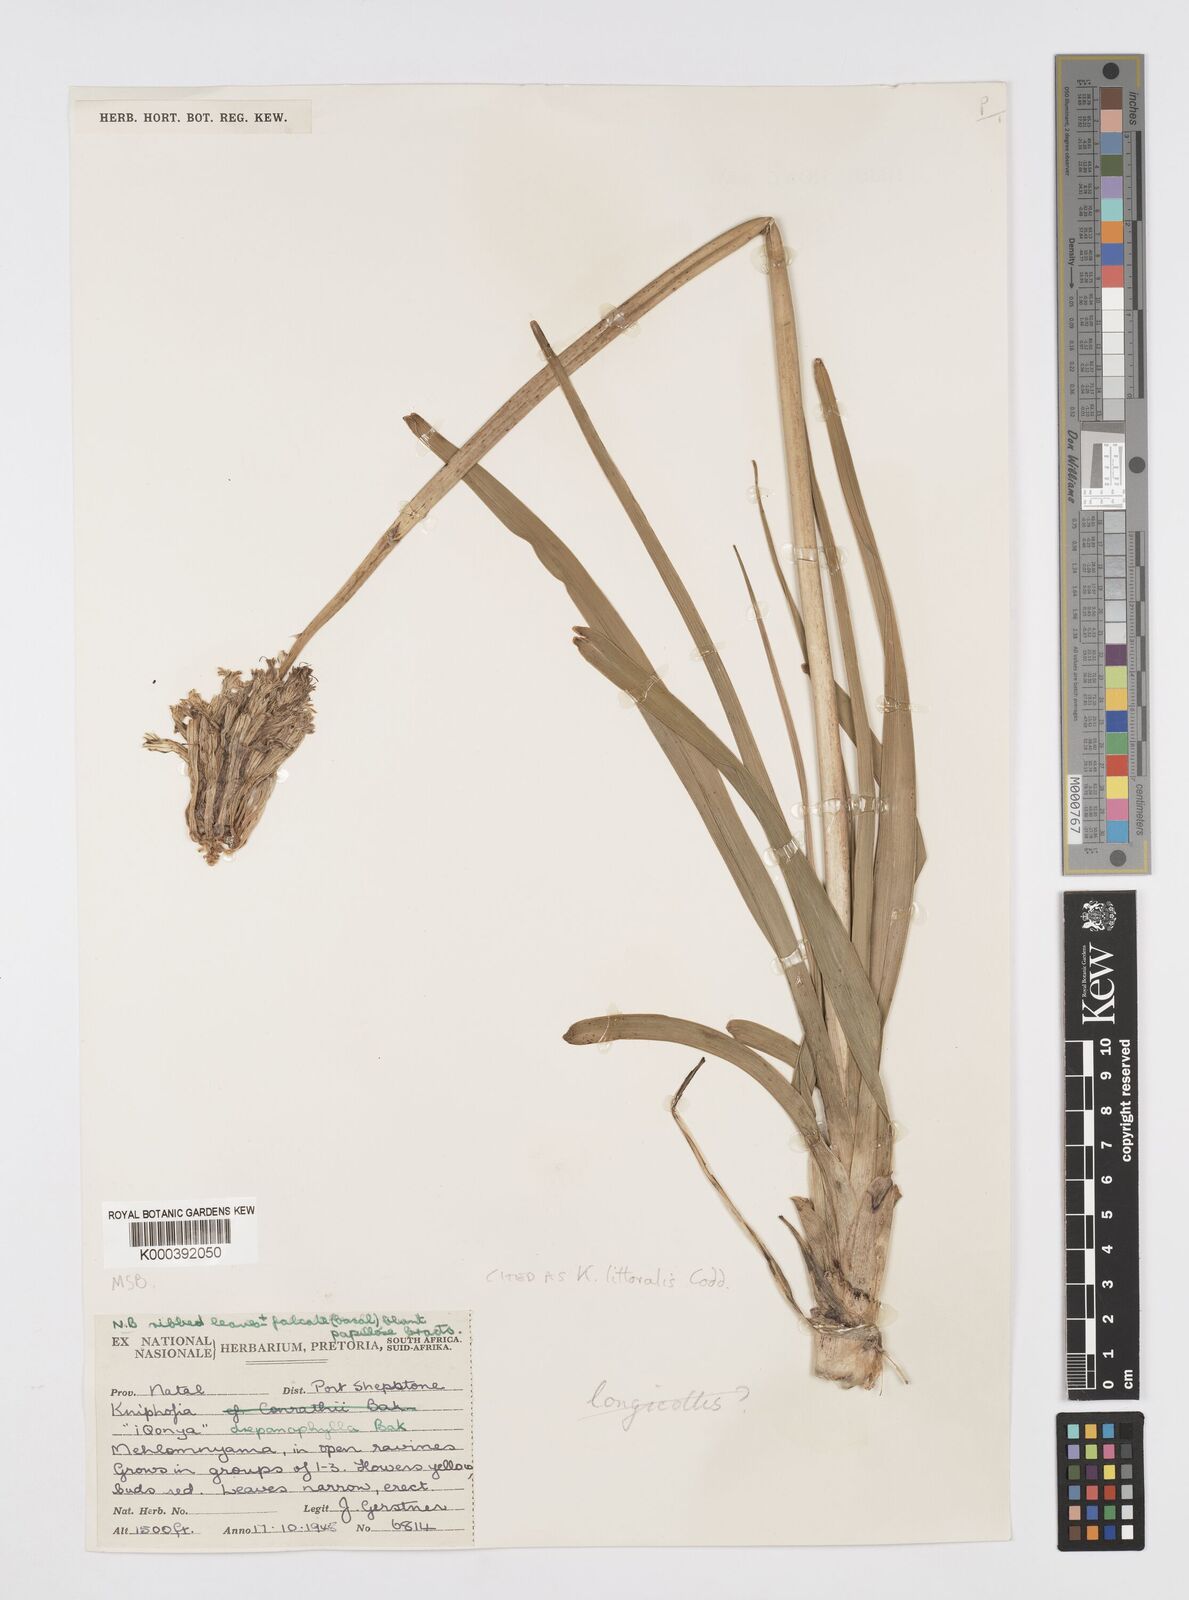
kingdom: Plantae
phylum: Tracheophyta
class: Liliopsida
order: Asparagales
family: Asphodelaceae
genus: Kniphofia
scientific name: Kniphofia littoralis
